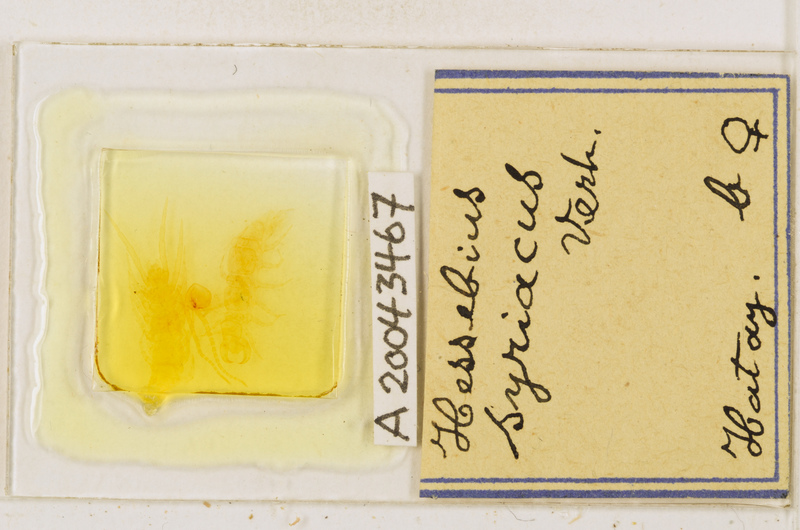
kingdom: Animalia
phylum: Arthropoda
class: Chilopoda
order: Lithobiomorpha
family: Lithobiidae
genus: Hessebius
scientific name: Hessebius
